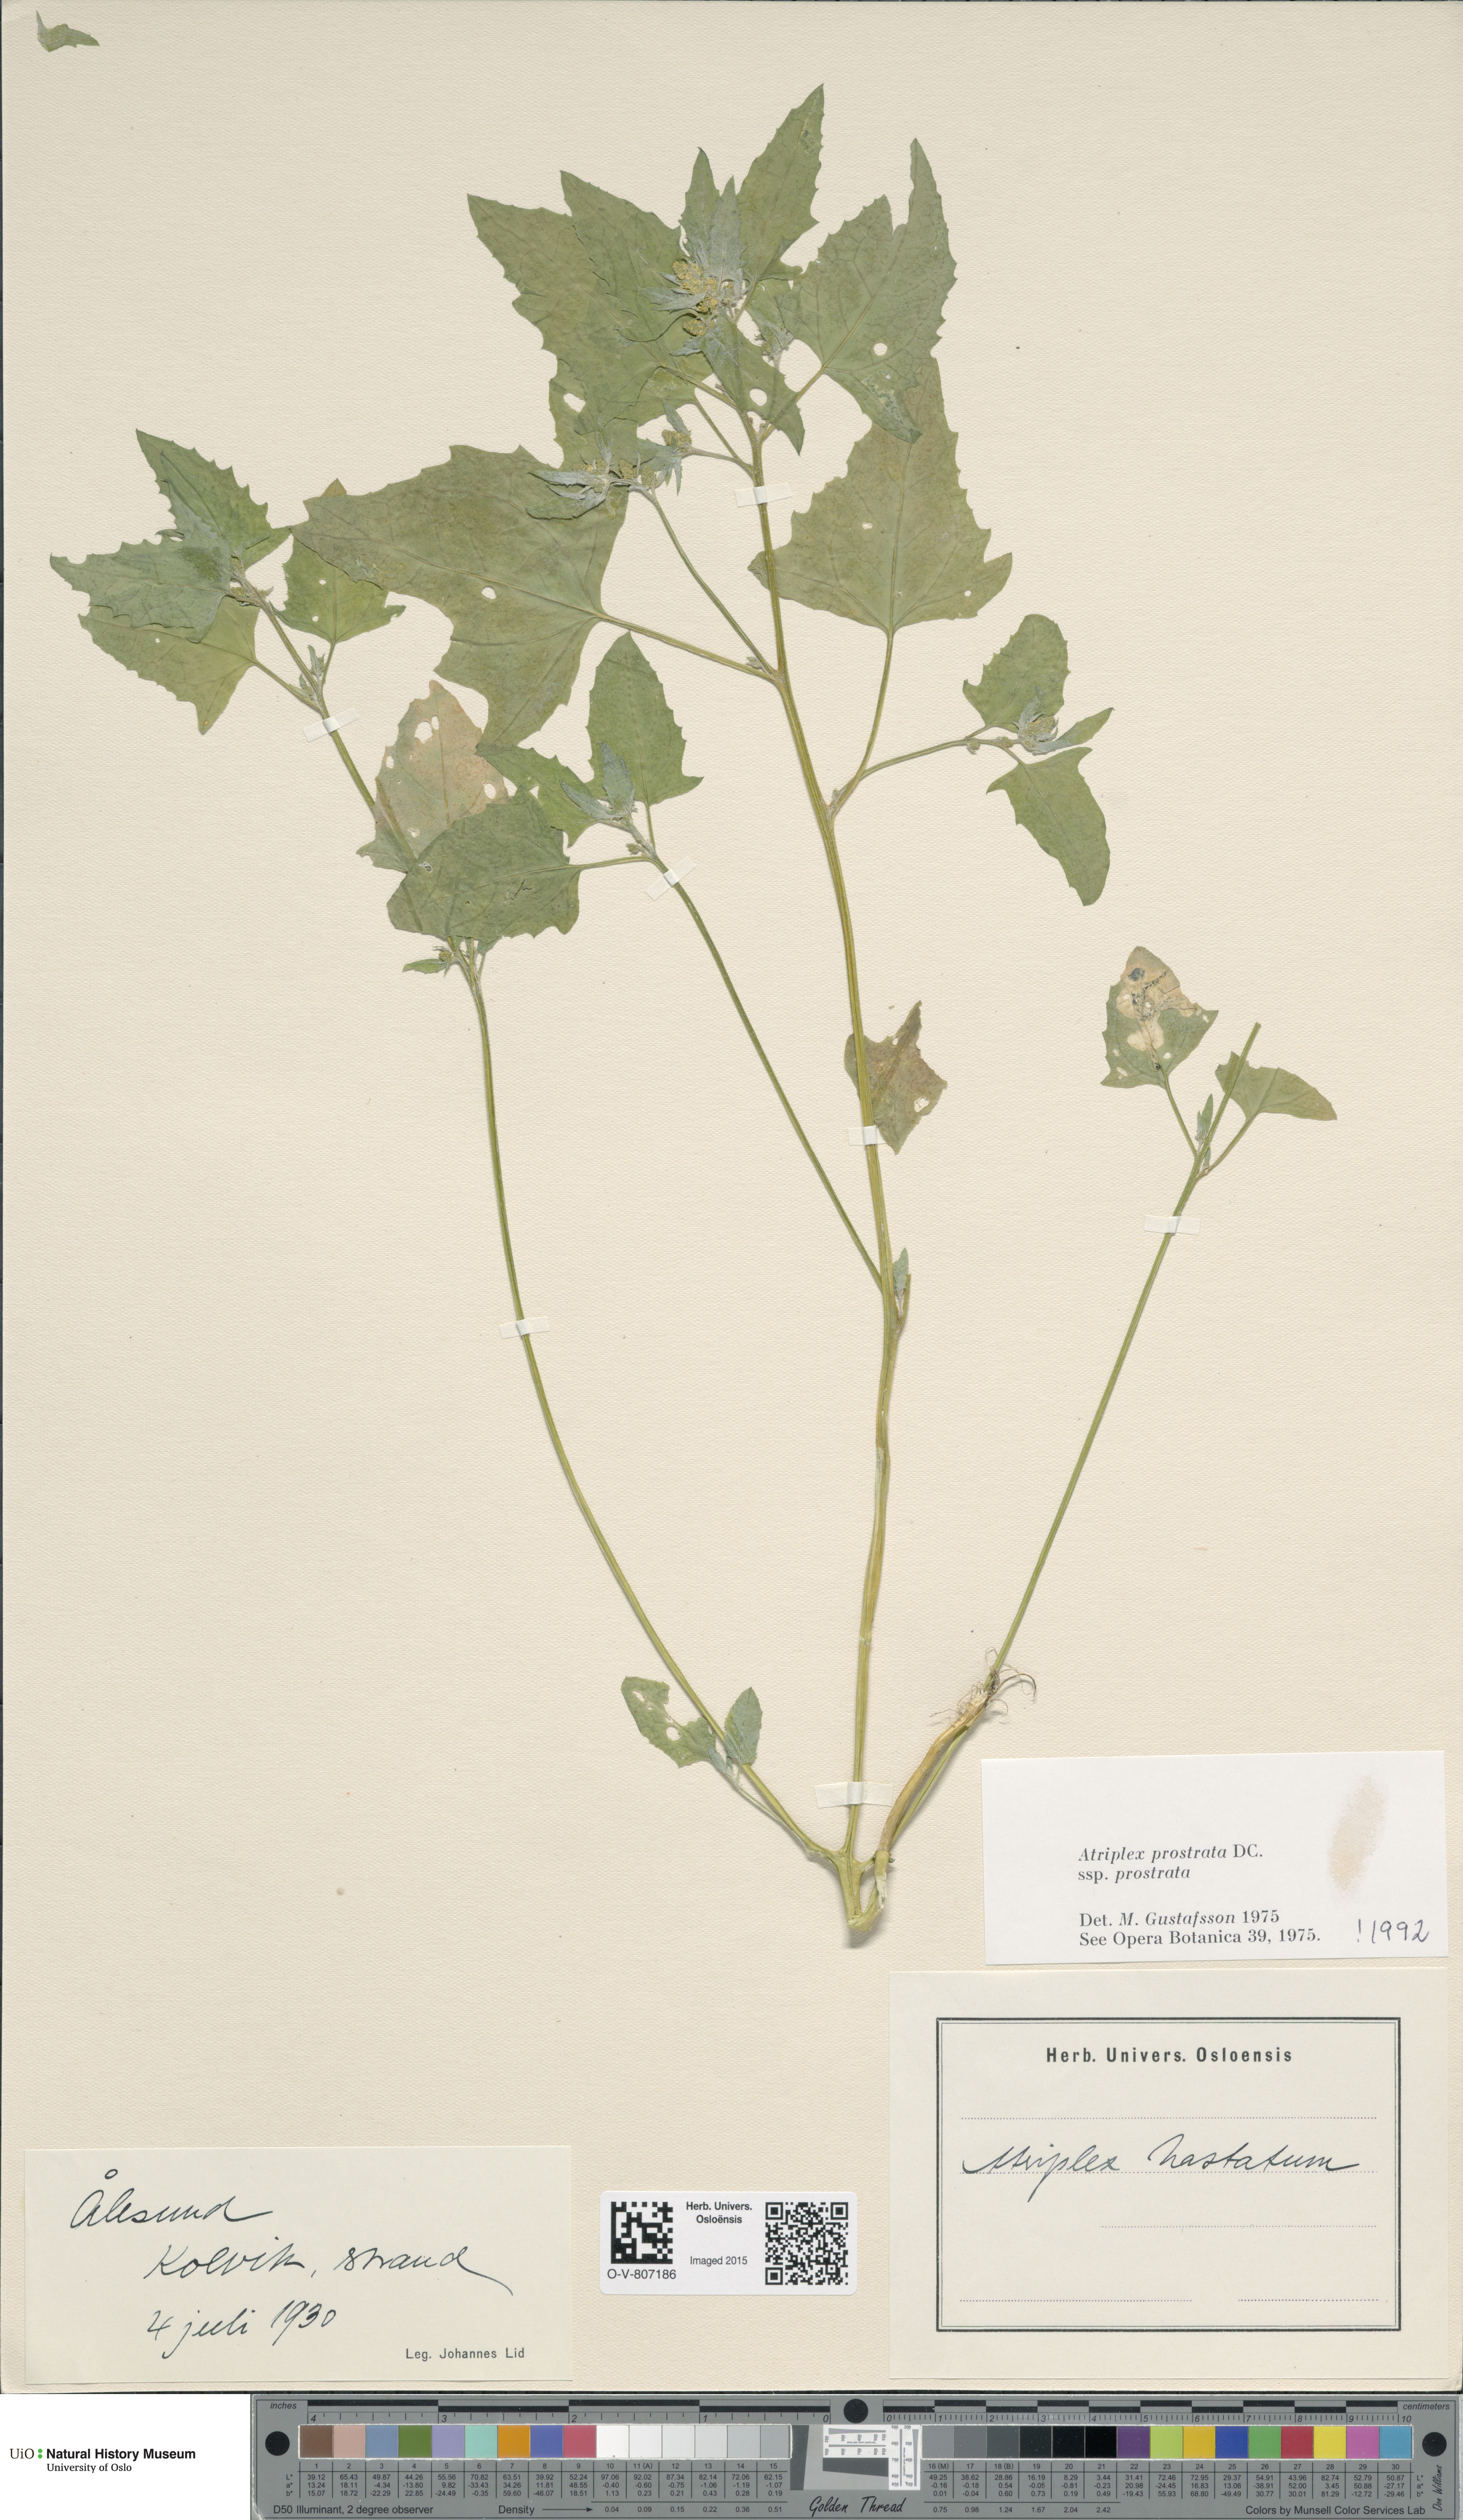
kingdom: Plantae
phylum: Tracheophyta
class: Magnoliopsida
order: Caryophyllales
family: Amaranthaceae
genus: Atriplex
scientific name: Atriplex prostrata
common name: Spear-leaved orache
